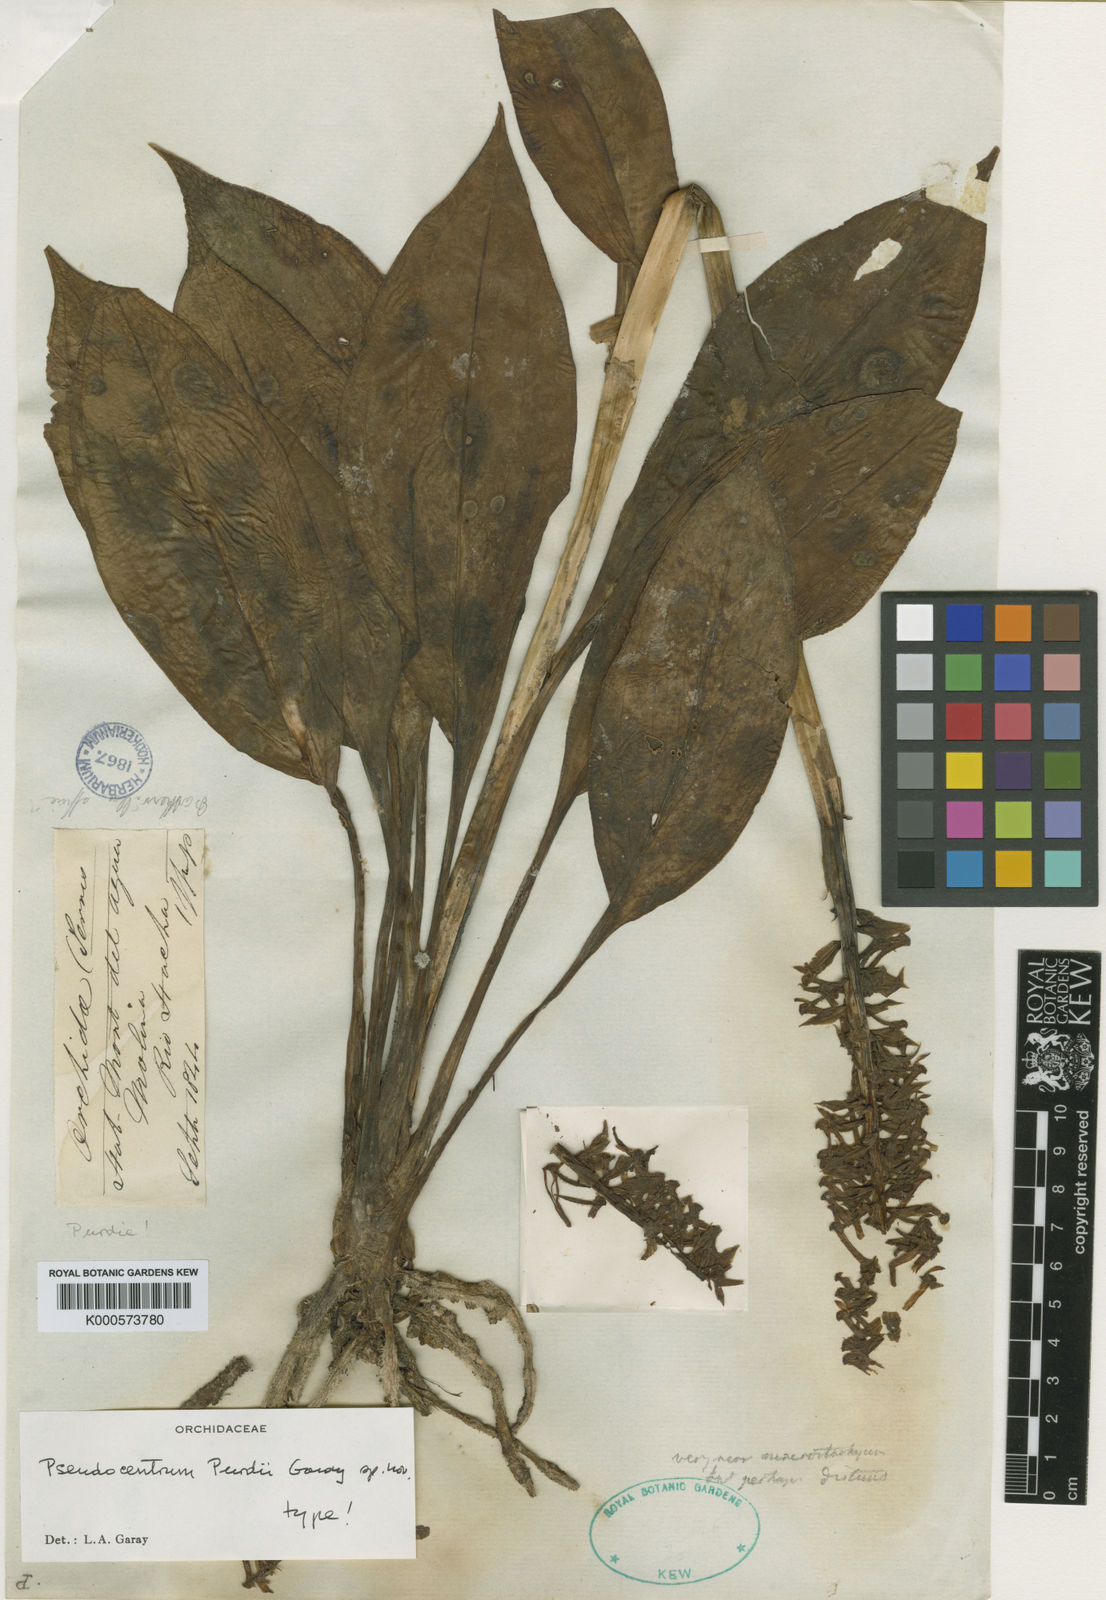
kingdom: Plantae
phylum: Tracheophyta
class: Liliopsida
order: Asparagales
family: Orchidaceae
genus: Pseudocentrum
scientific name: Pseudocentrum purdii
